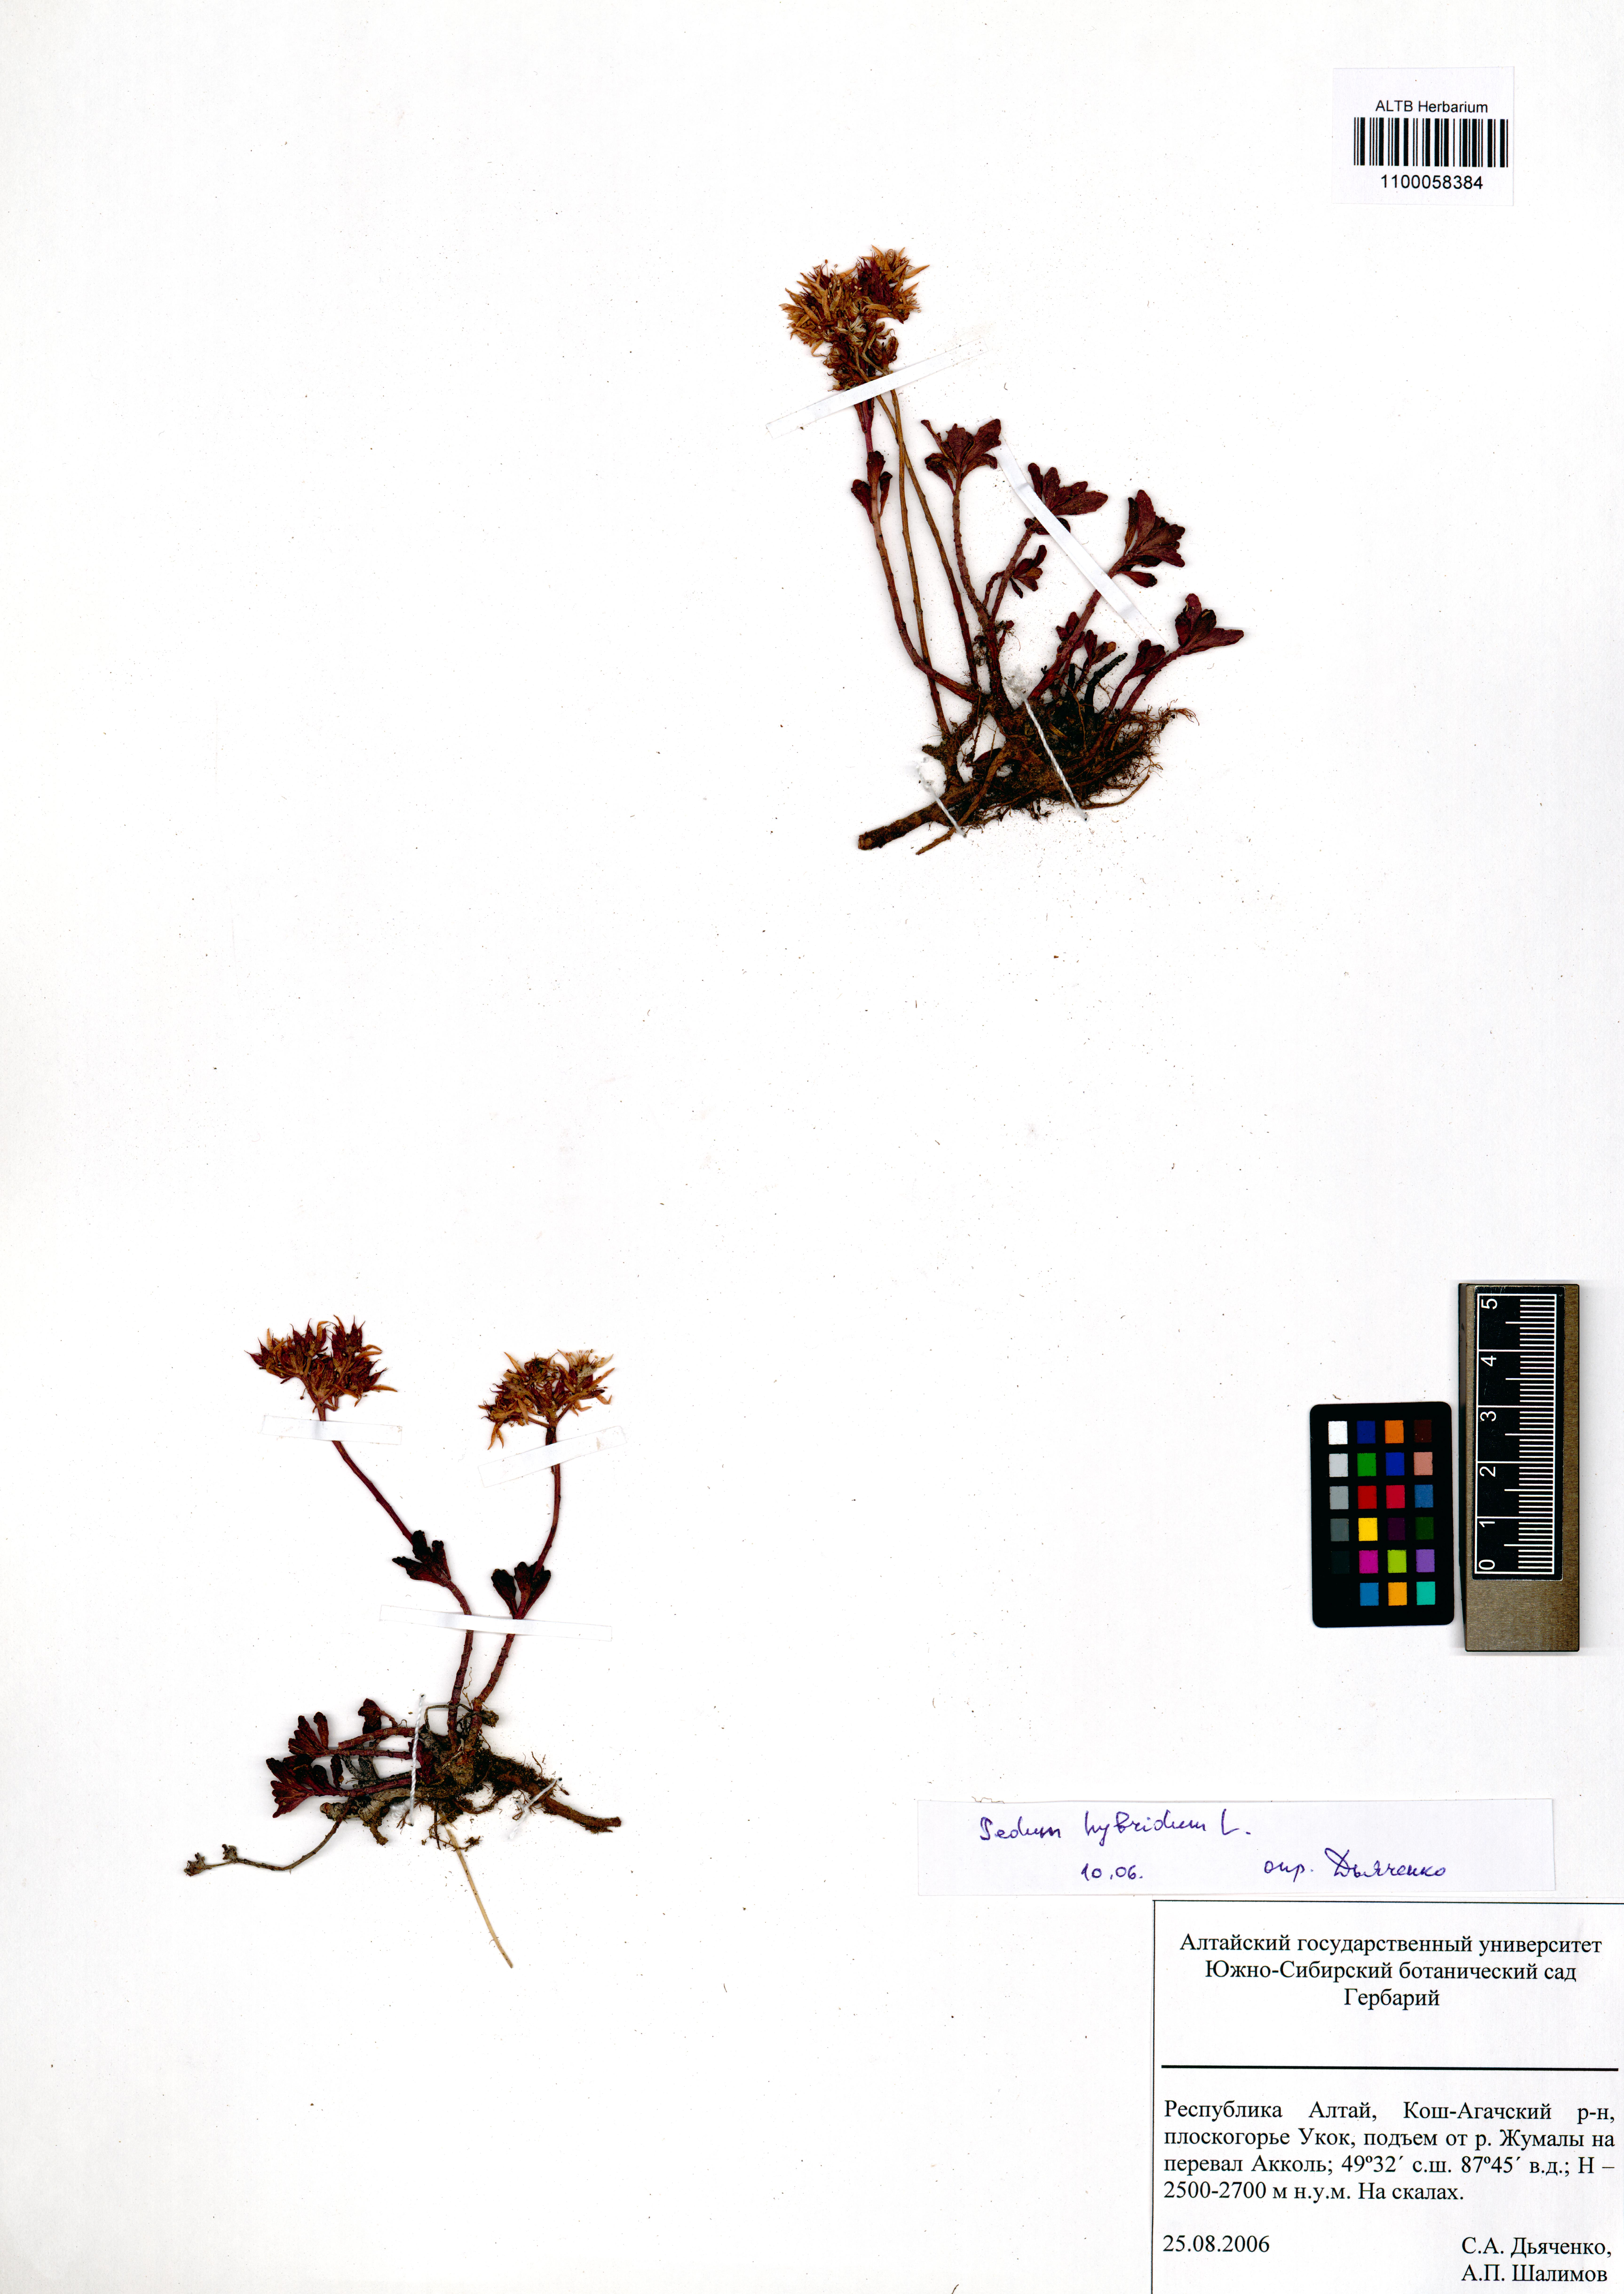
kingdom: Plantae
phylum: Tracheophyta
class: Magnoliopsida
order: Saxifragales
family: Crassulaceae
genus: Phedimus
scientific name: Phedimus hybridus
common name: Hybrid stonecrop
